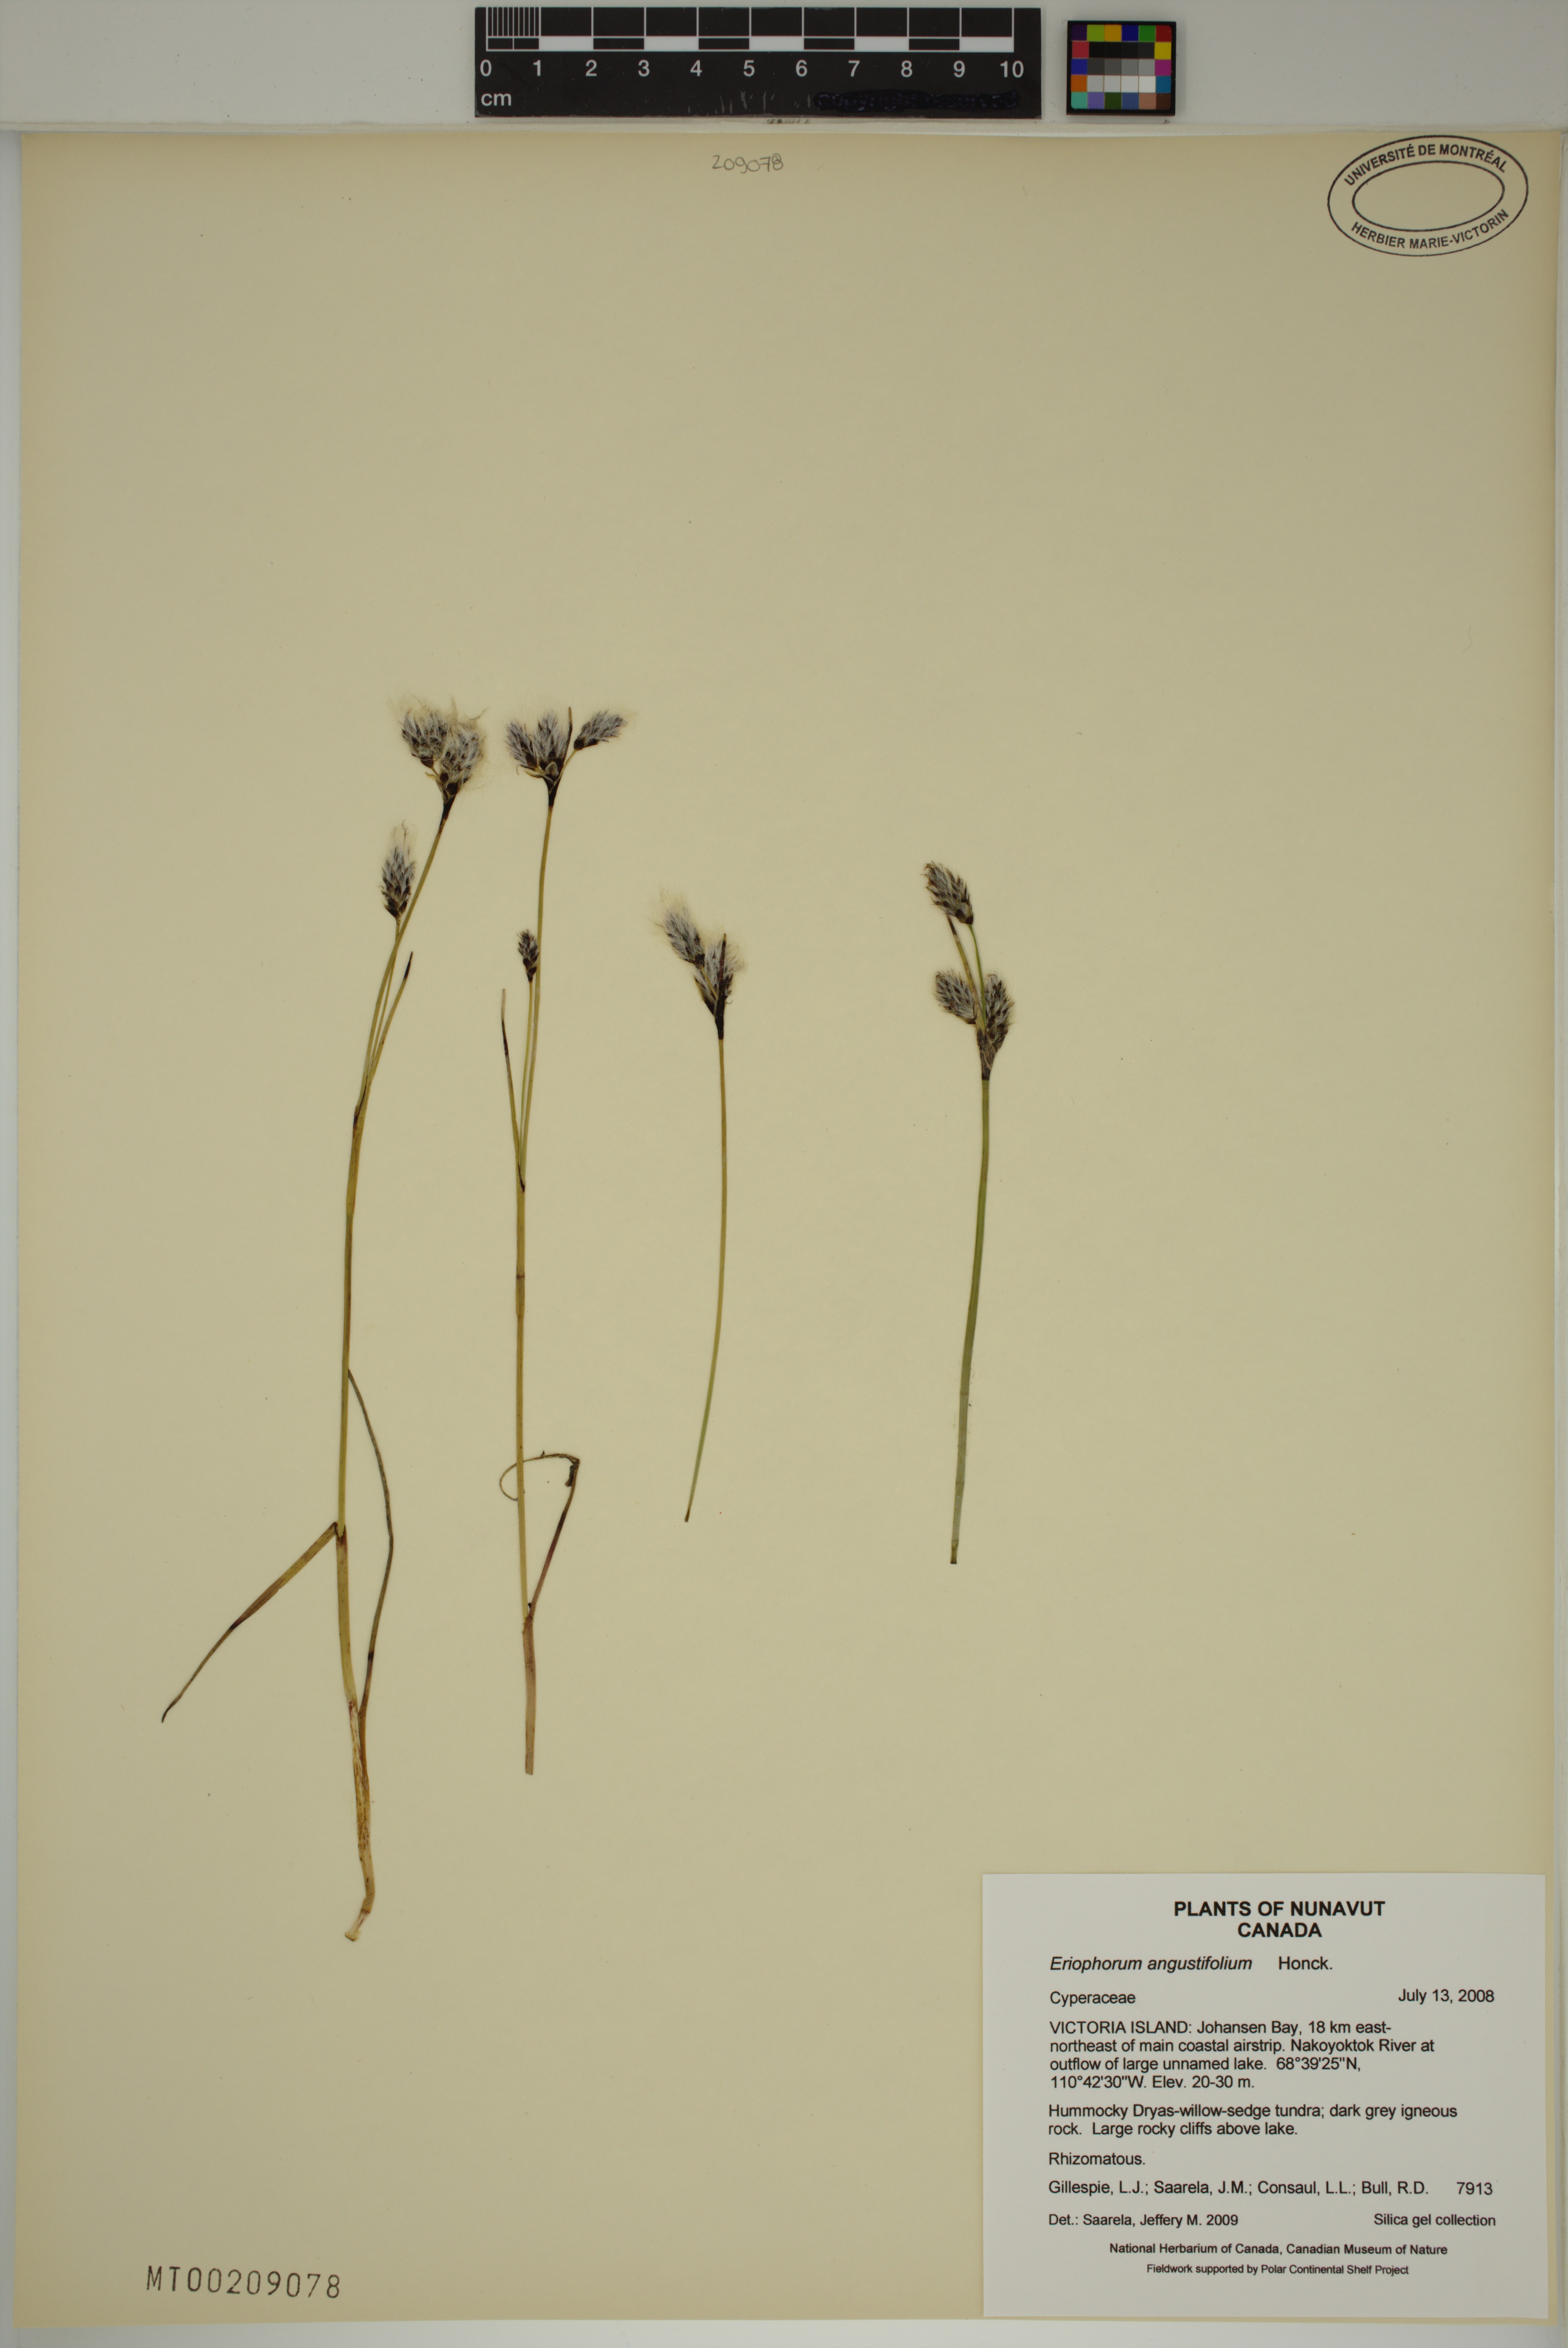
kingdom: Plantae
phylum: Tracheophyta
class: Liliopsida
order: Poales
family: Cyperaceae
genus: Eriophorum
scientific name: Eriophorum angustifolium
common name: Common cottongrass
